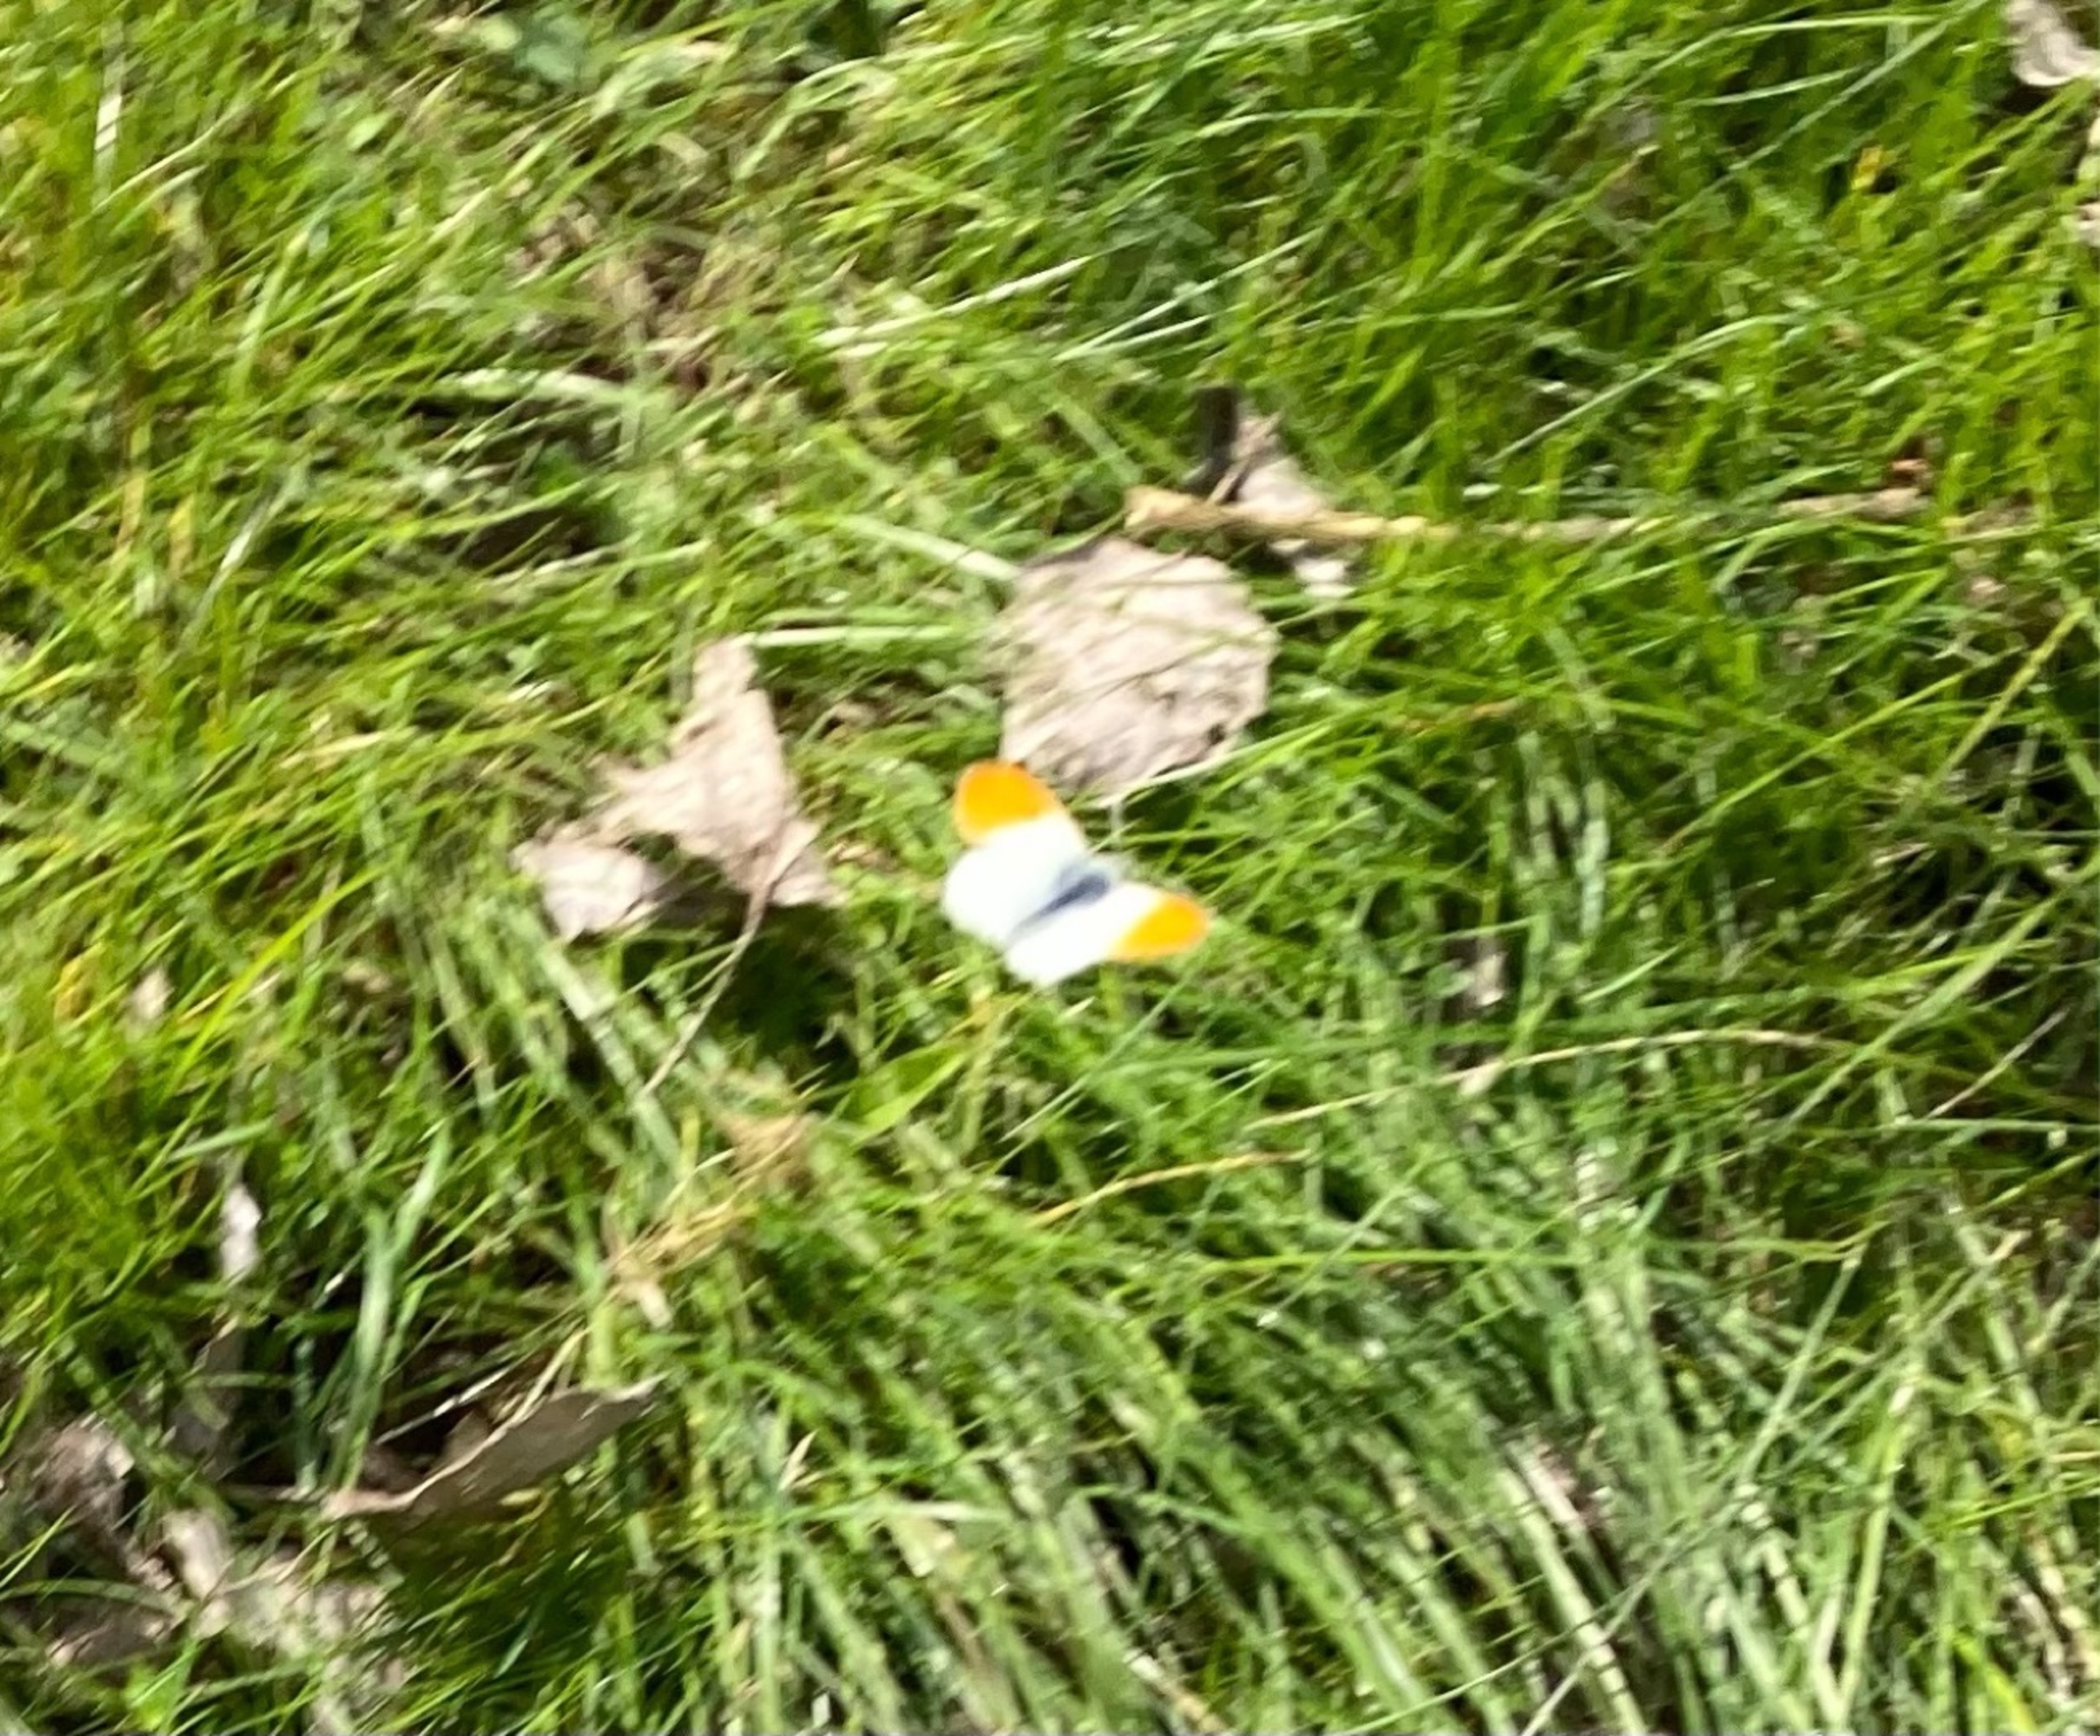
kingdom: Animalia
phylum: Arthropoda
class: Insecta
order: Lepidoptera
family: Pieridae
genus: Anthocharis
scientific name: Anthocharis cardamines
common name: Aurora
